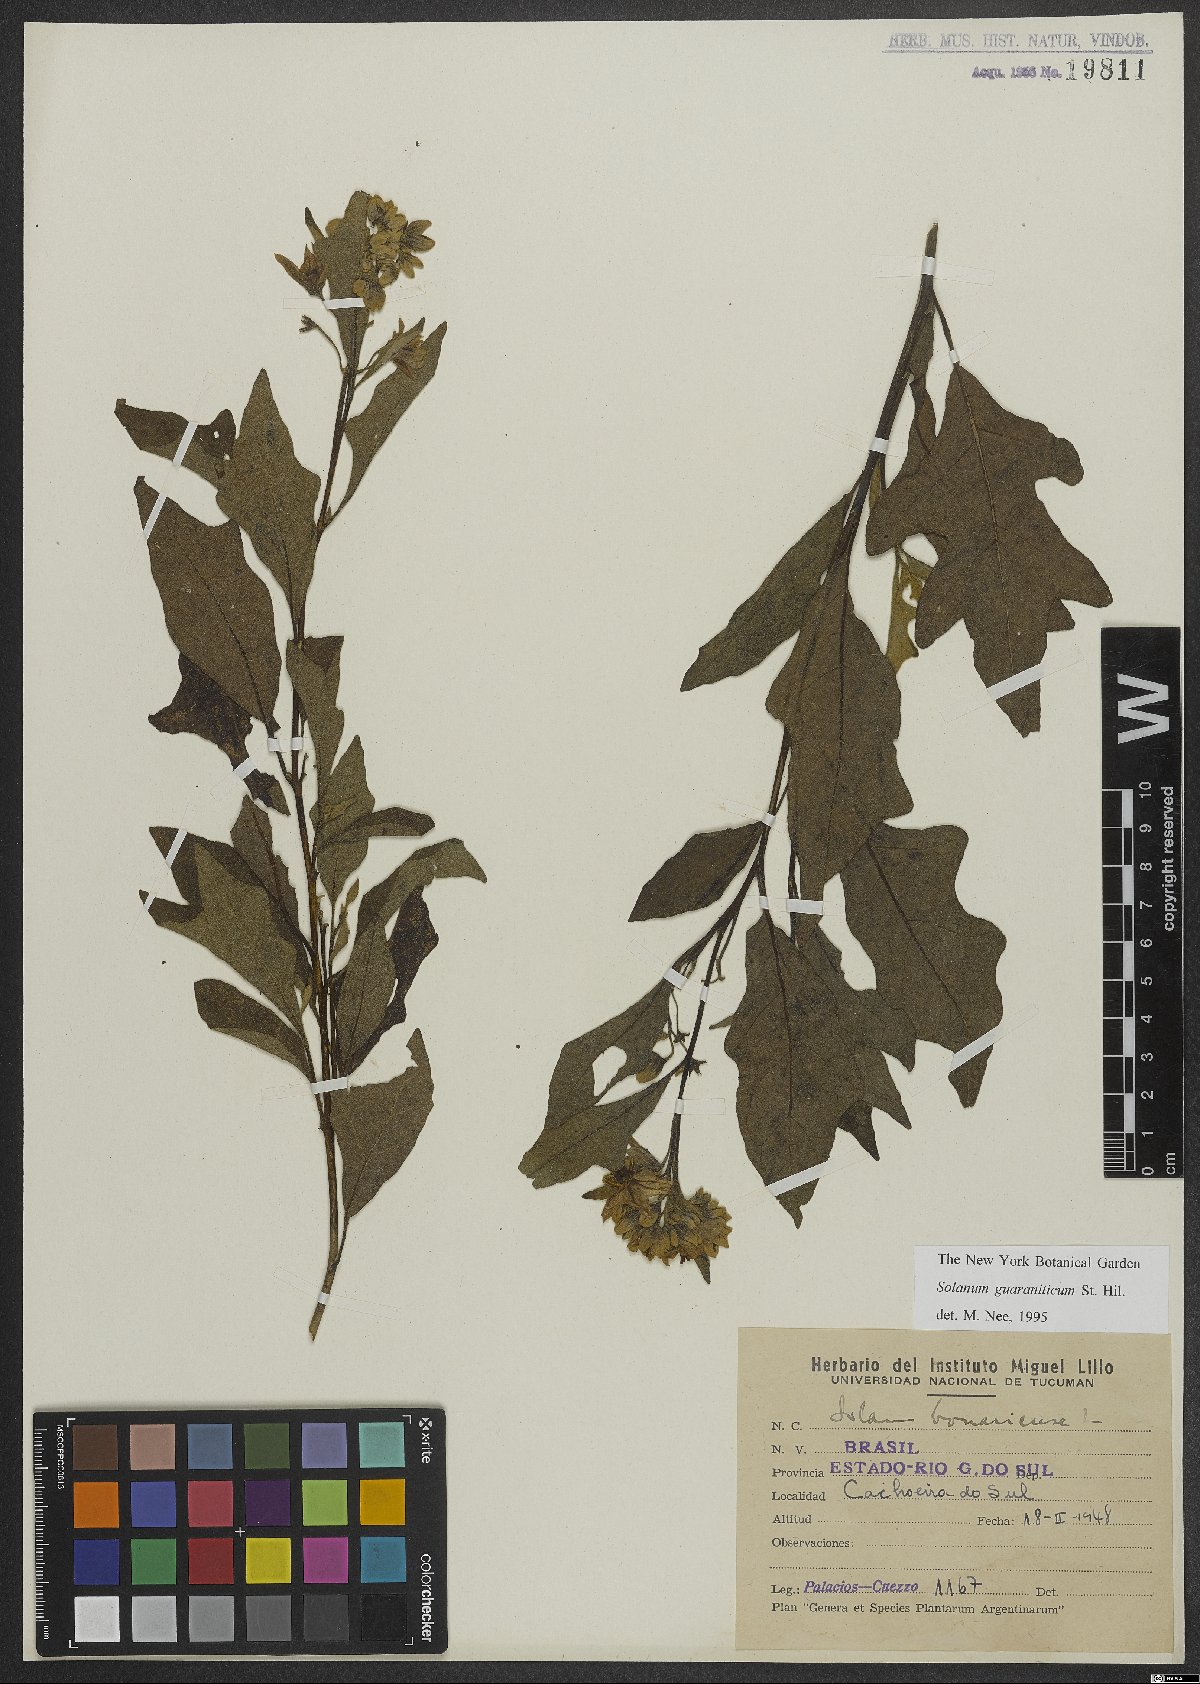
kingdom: Plantae
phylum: Tracheophyta
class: Magnoliopsida
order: Solanales
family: Solanaceae
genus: Solanum
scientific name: Solanum guaraniticum
